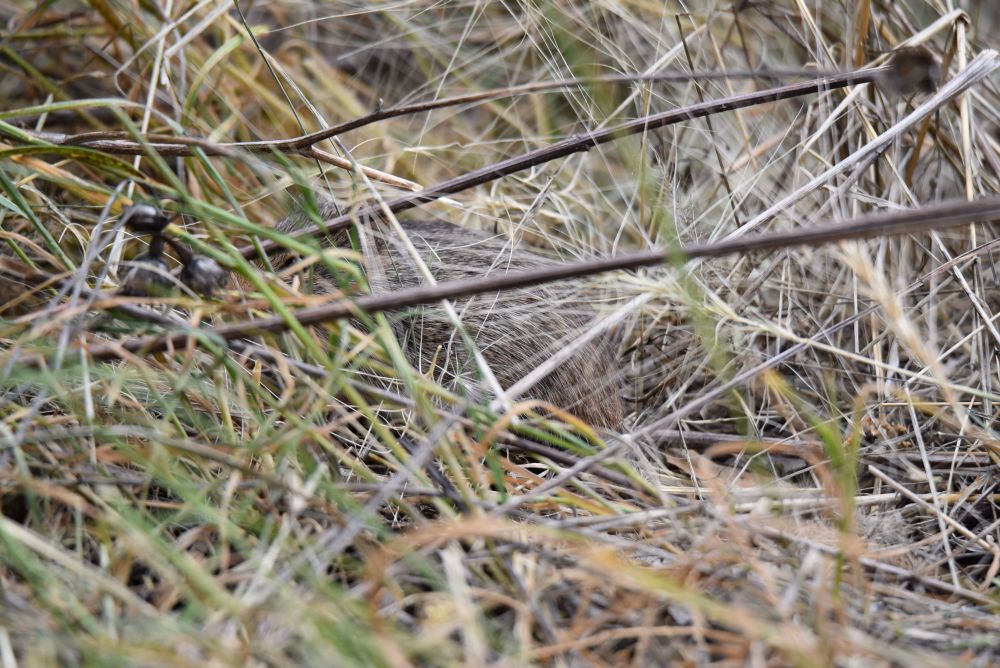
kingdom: Animalia
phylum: Chordata
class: Mammalia
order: Rodentia
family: Cricetidae
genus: Sigmodon
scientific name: Sigmodon ochrognathus
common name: Yellow-nosed cotton rat
